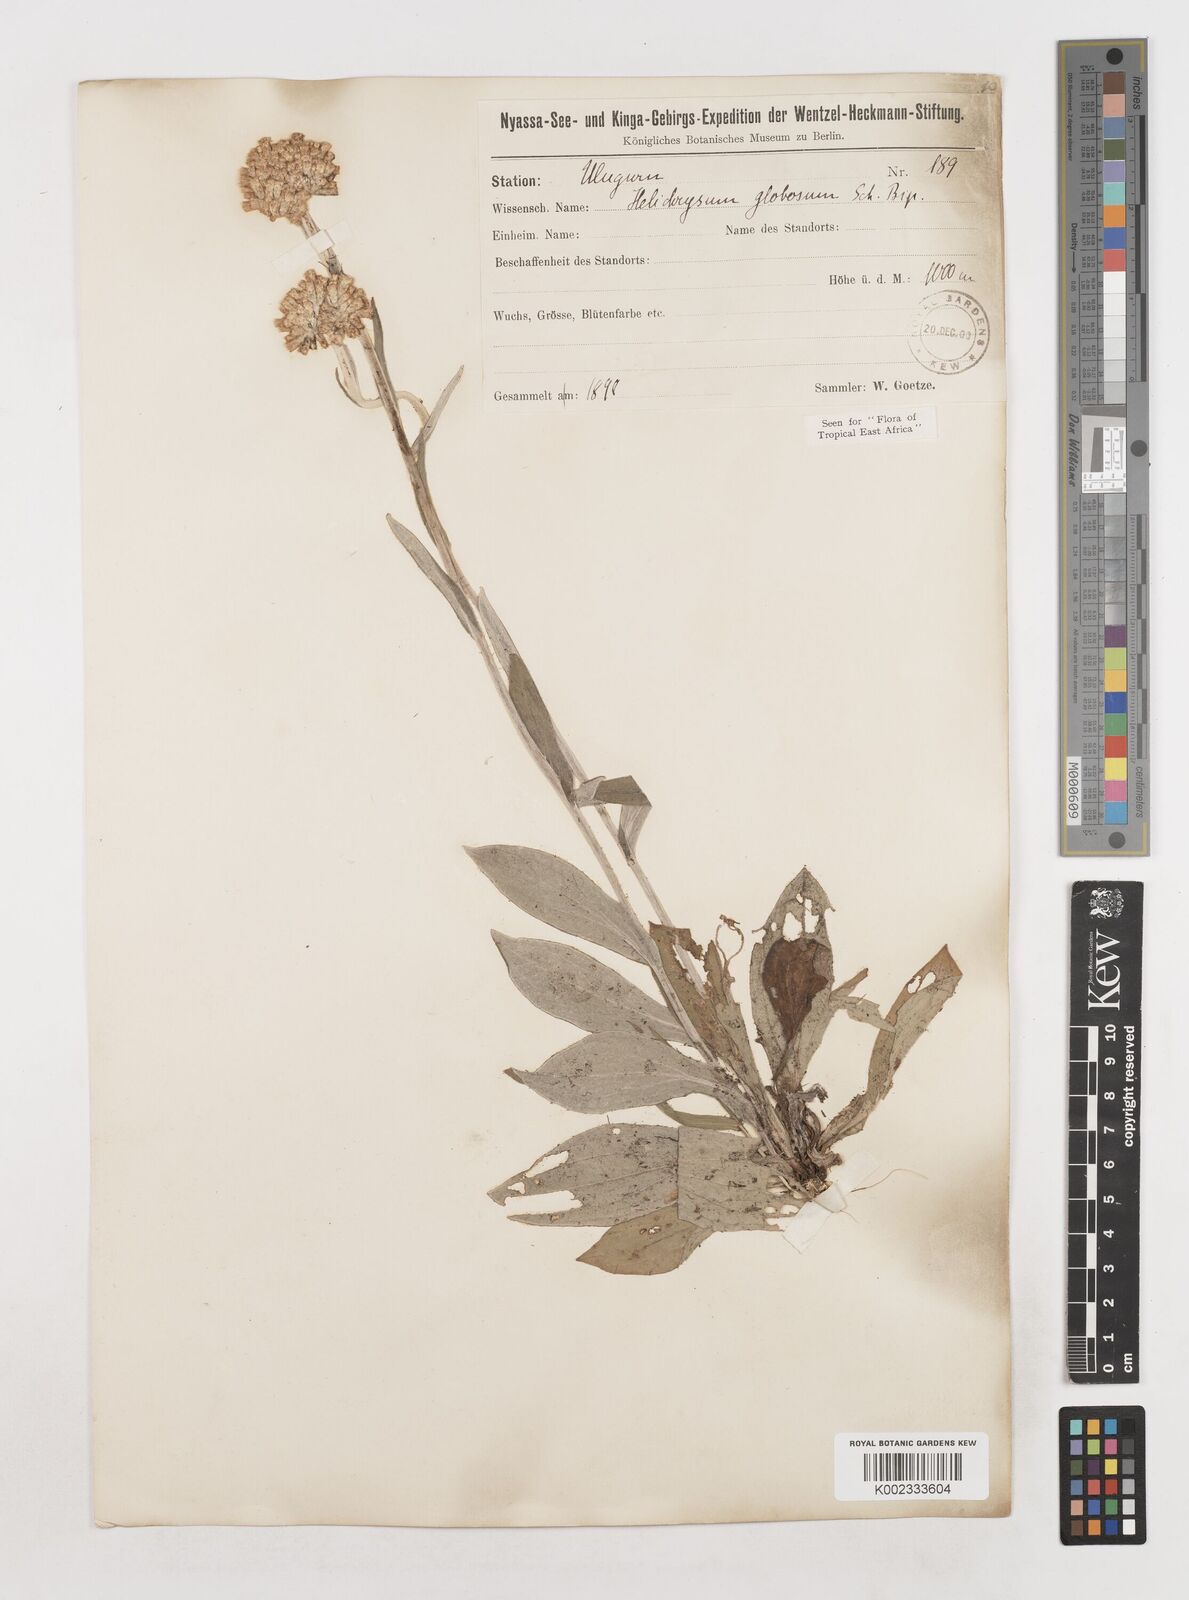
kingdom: Plantae
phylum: Tracheophyta
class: Magnoliopsida
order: Asterales
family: Asteraceae
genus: Helichrysum
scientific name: Helichrysum globosum
